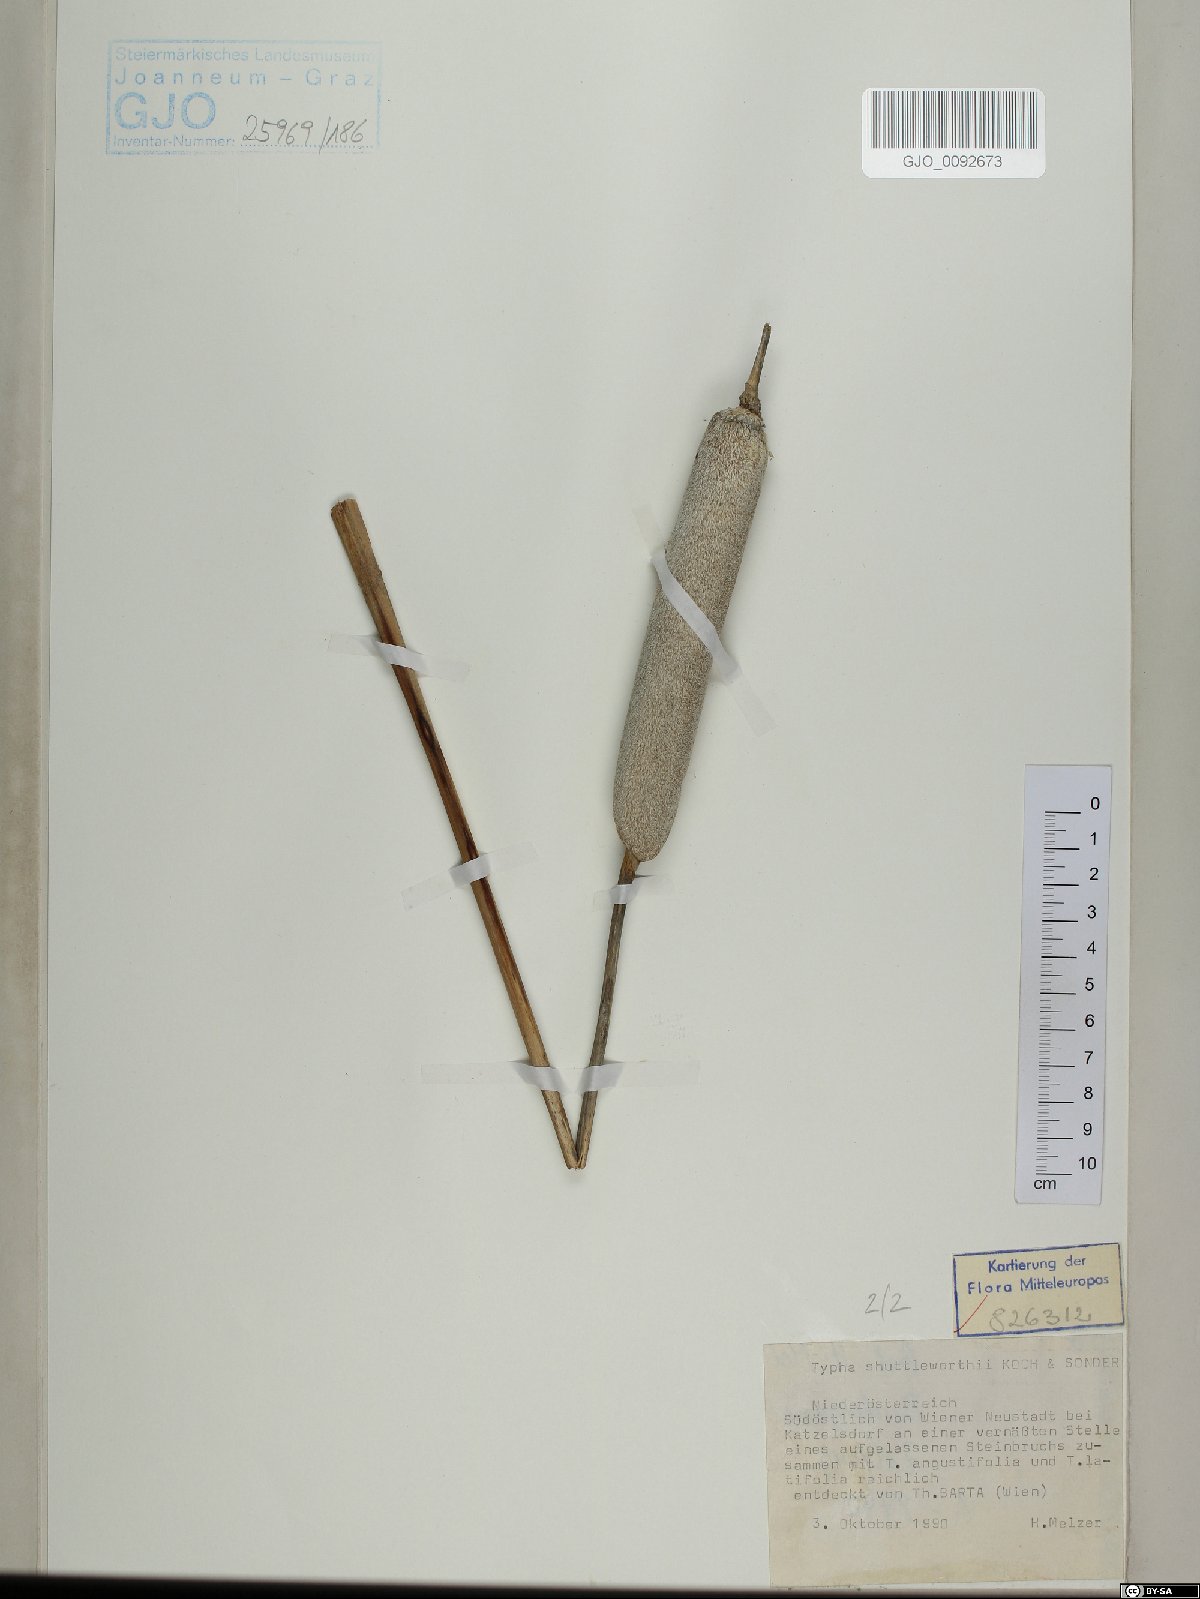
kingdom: Plantae
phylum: Tracheophyta
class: Liliopsida
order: Poales
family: Typhaceae
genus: Typha
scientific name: Typha shuttleworthii
